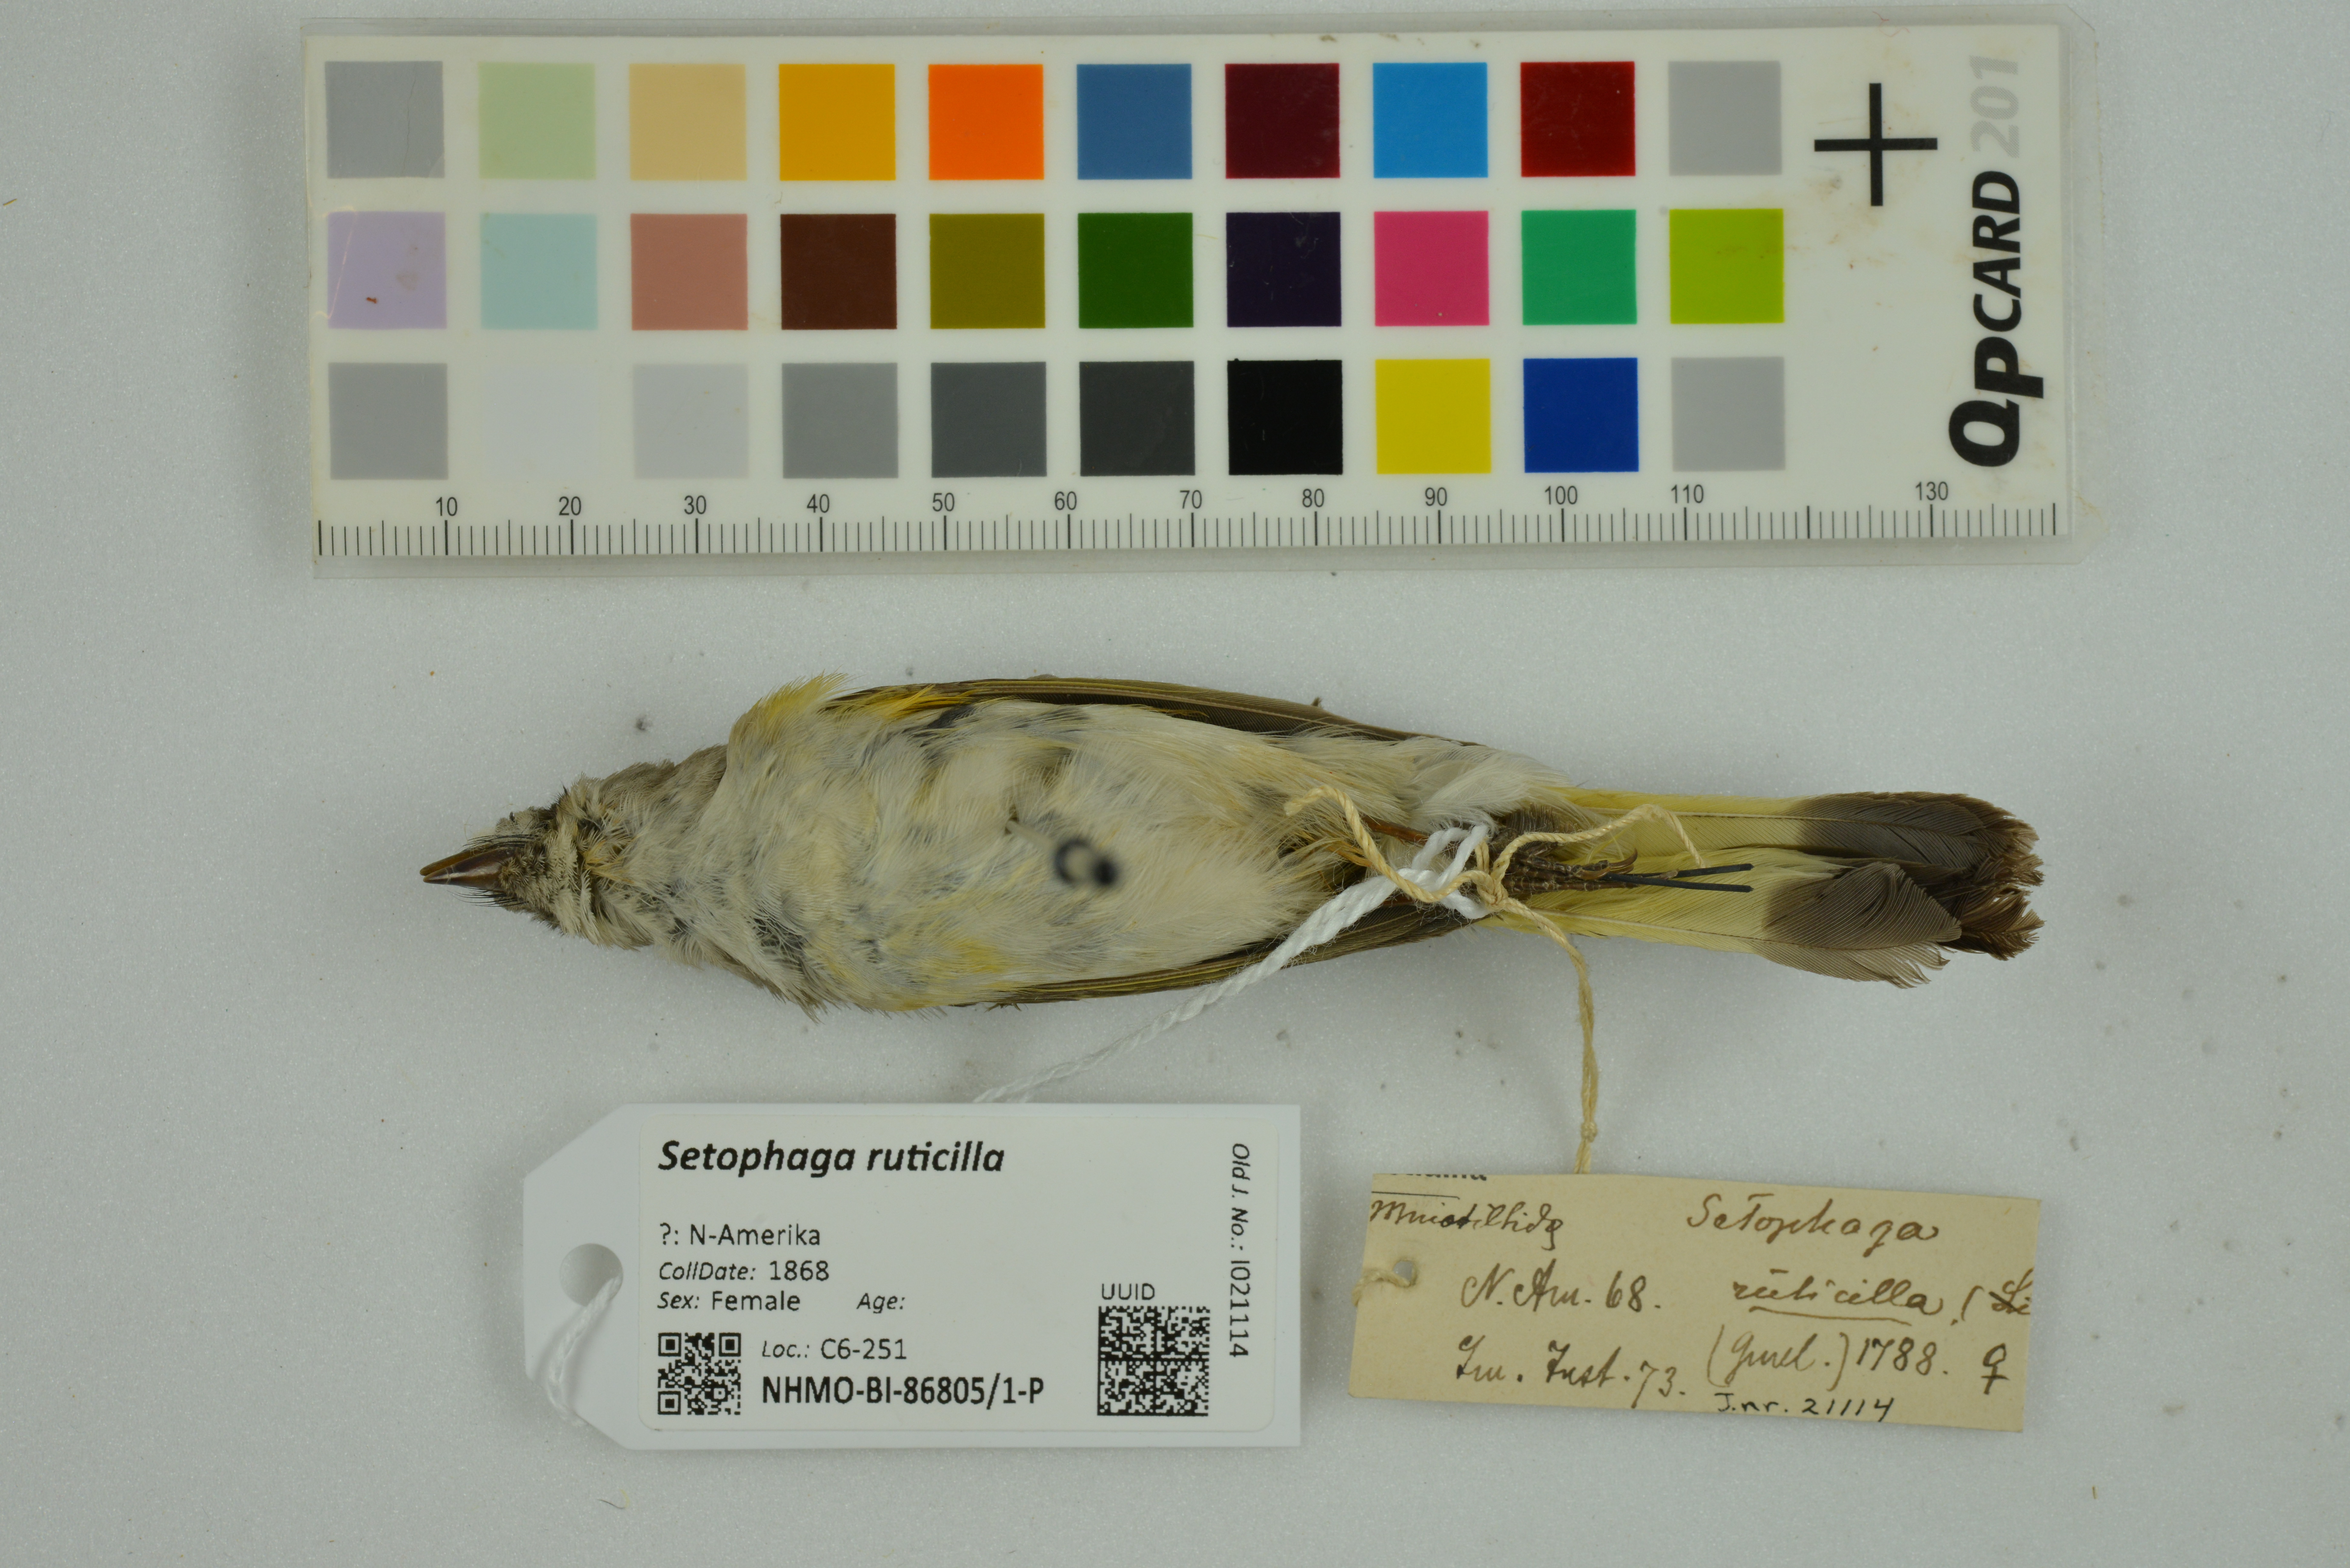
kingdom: Animalia
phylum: Chordata
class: Aves
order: Passeriformes
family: Parulidae
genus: Setophaga
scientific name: Setophaga ruticilla
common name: American redstart
